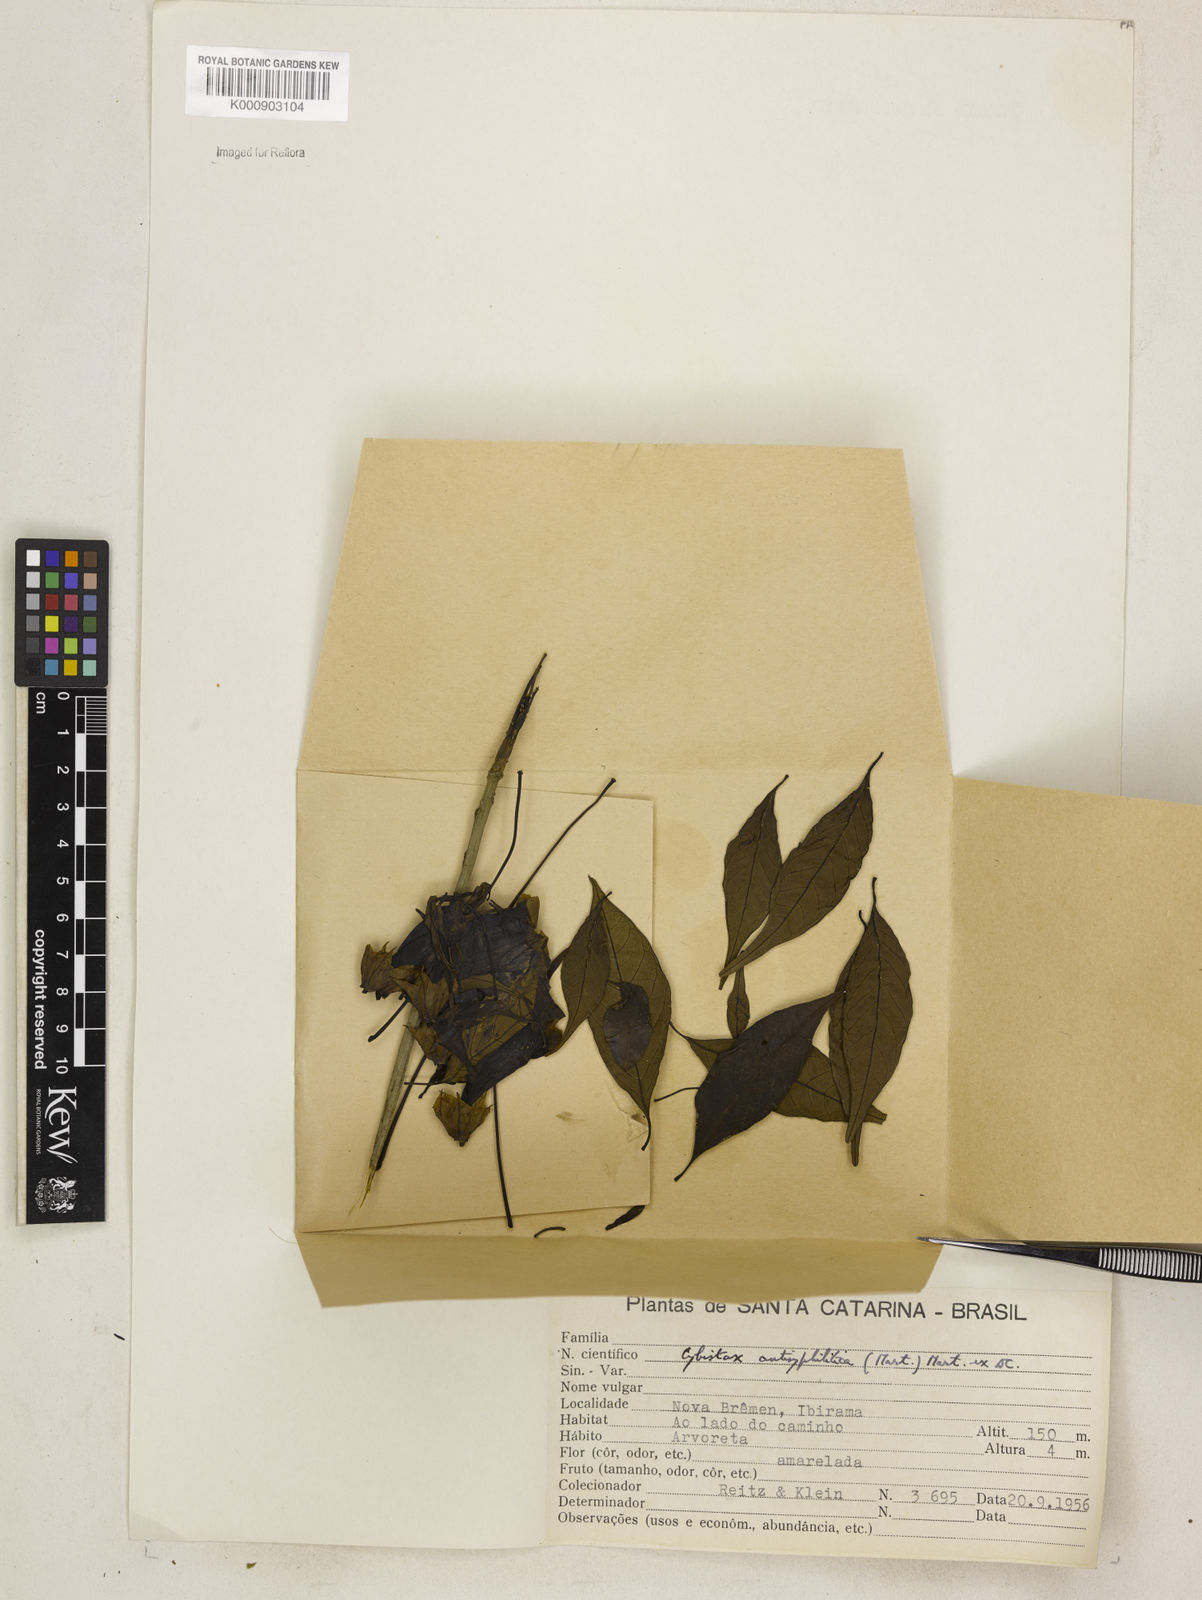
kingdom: Plantae
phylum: Tracheophyta
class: Magnoliopsida
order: Lamiales
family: Bignoniaceae
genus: Cybistax
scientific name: Cybistax antisyphilitica
